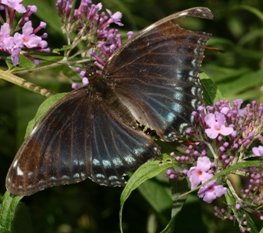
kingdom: Animalia
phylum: Arthropoda
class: Insecta
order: Lepidoptera
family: Nymphalidae
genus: Limenitis
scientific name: Limenitis astyanax
